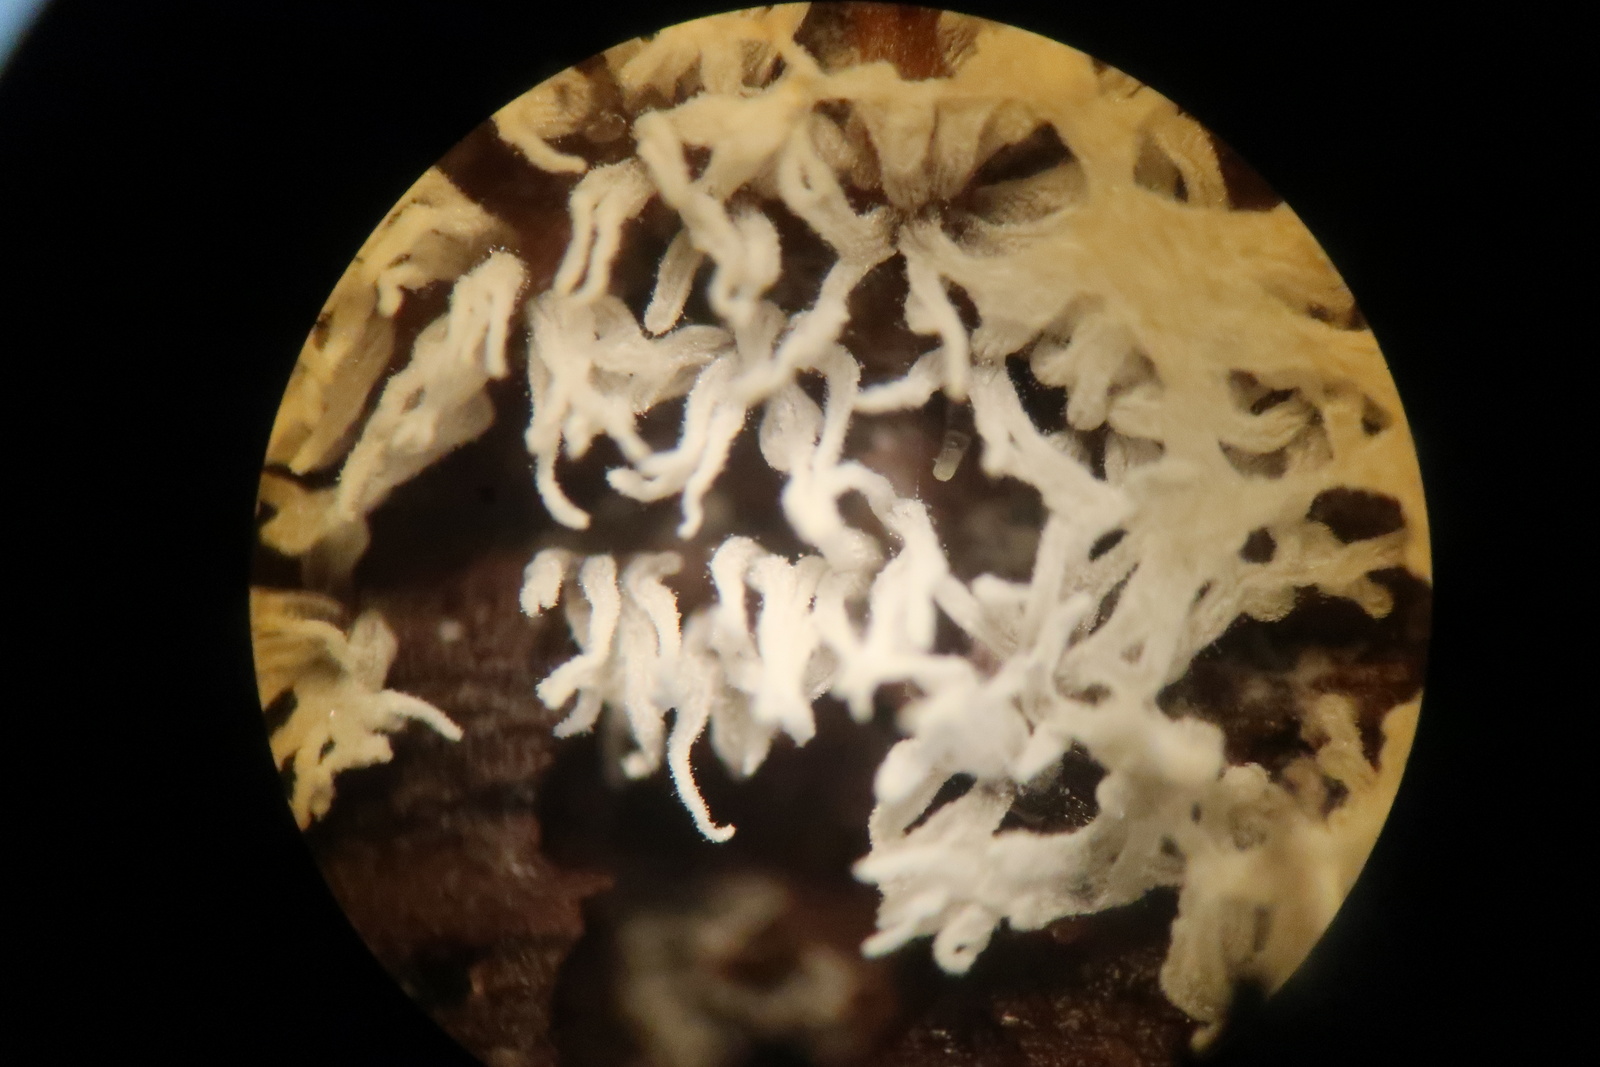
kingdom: Protozoa
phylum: Mycetozoa
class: Protosteliomycetes
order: Ceratiomyxales
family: Ceratiomyxaceae
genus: Ceratiomyxa
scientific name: Ceratiomyxa fruticulosa
